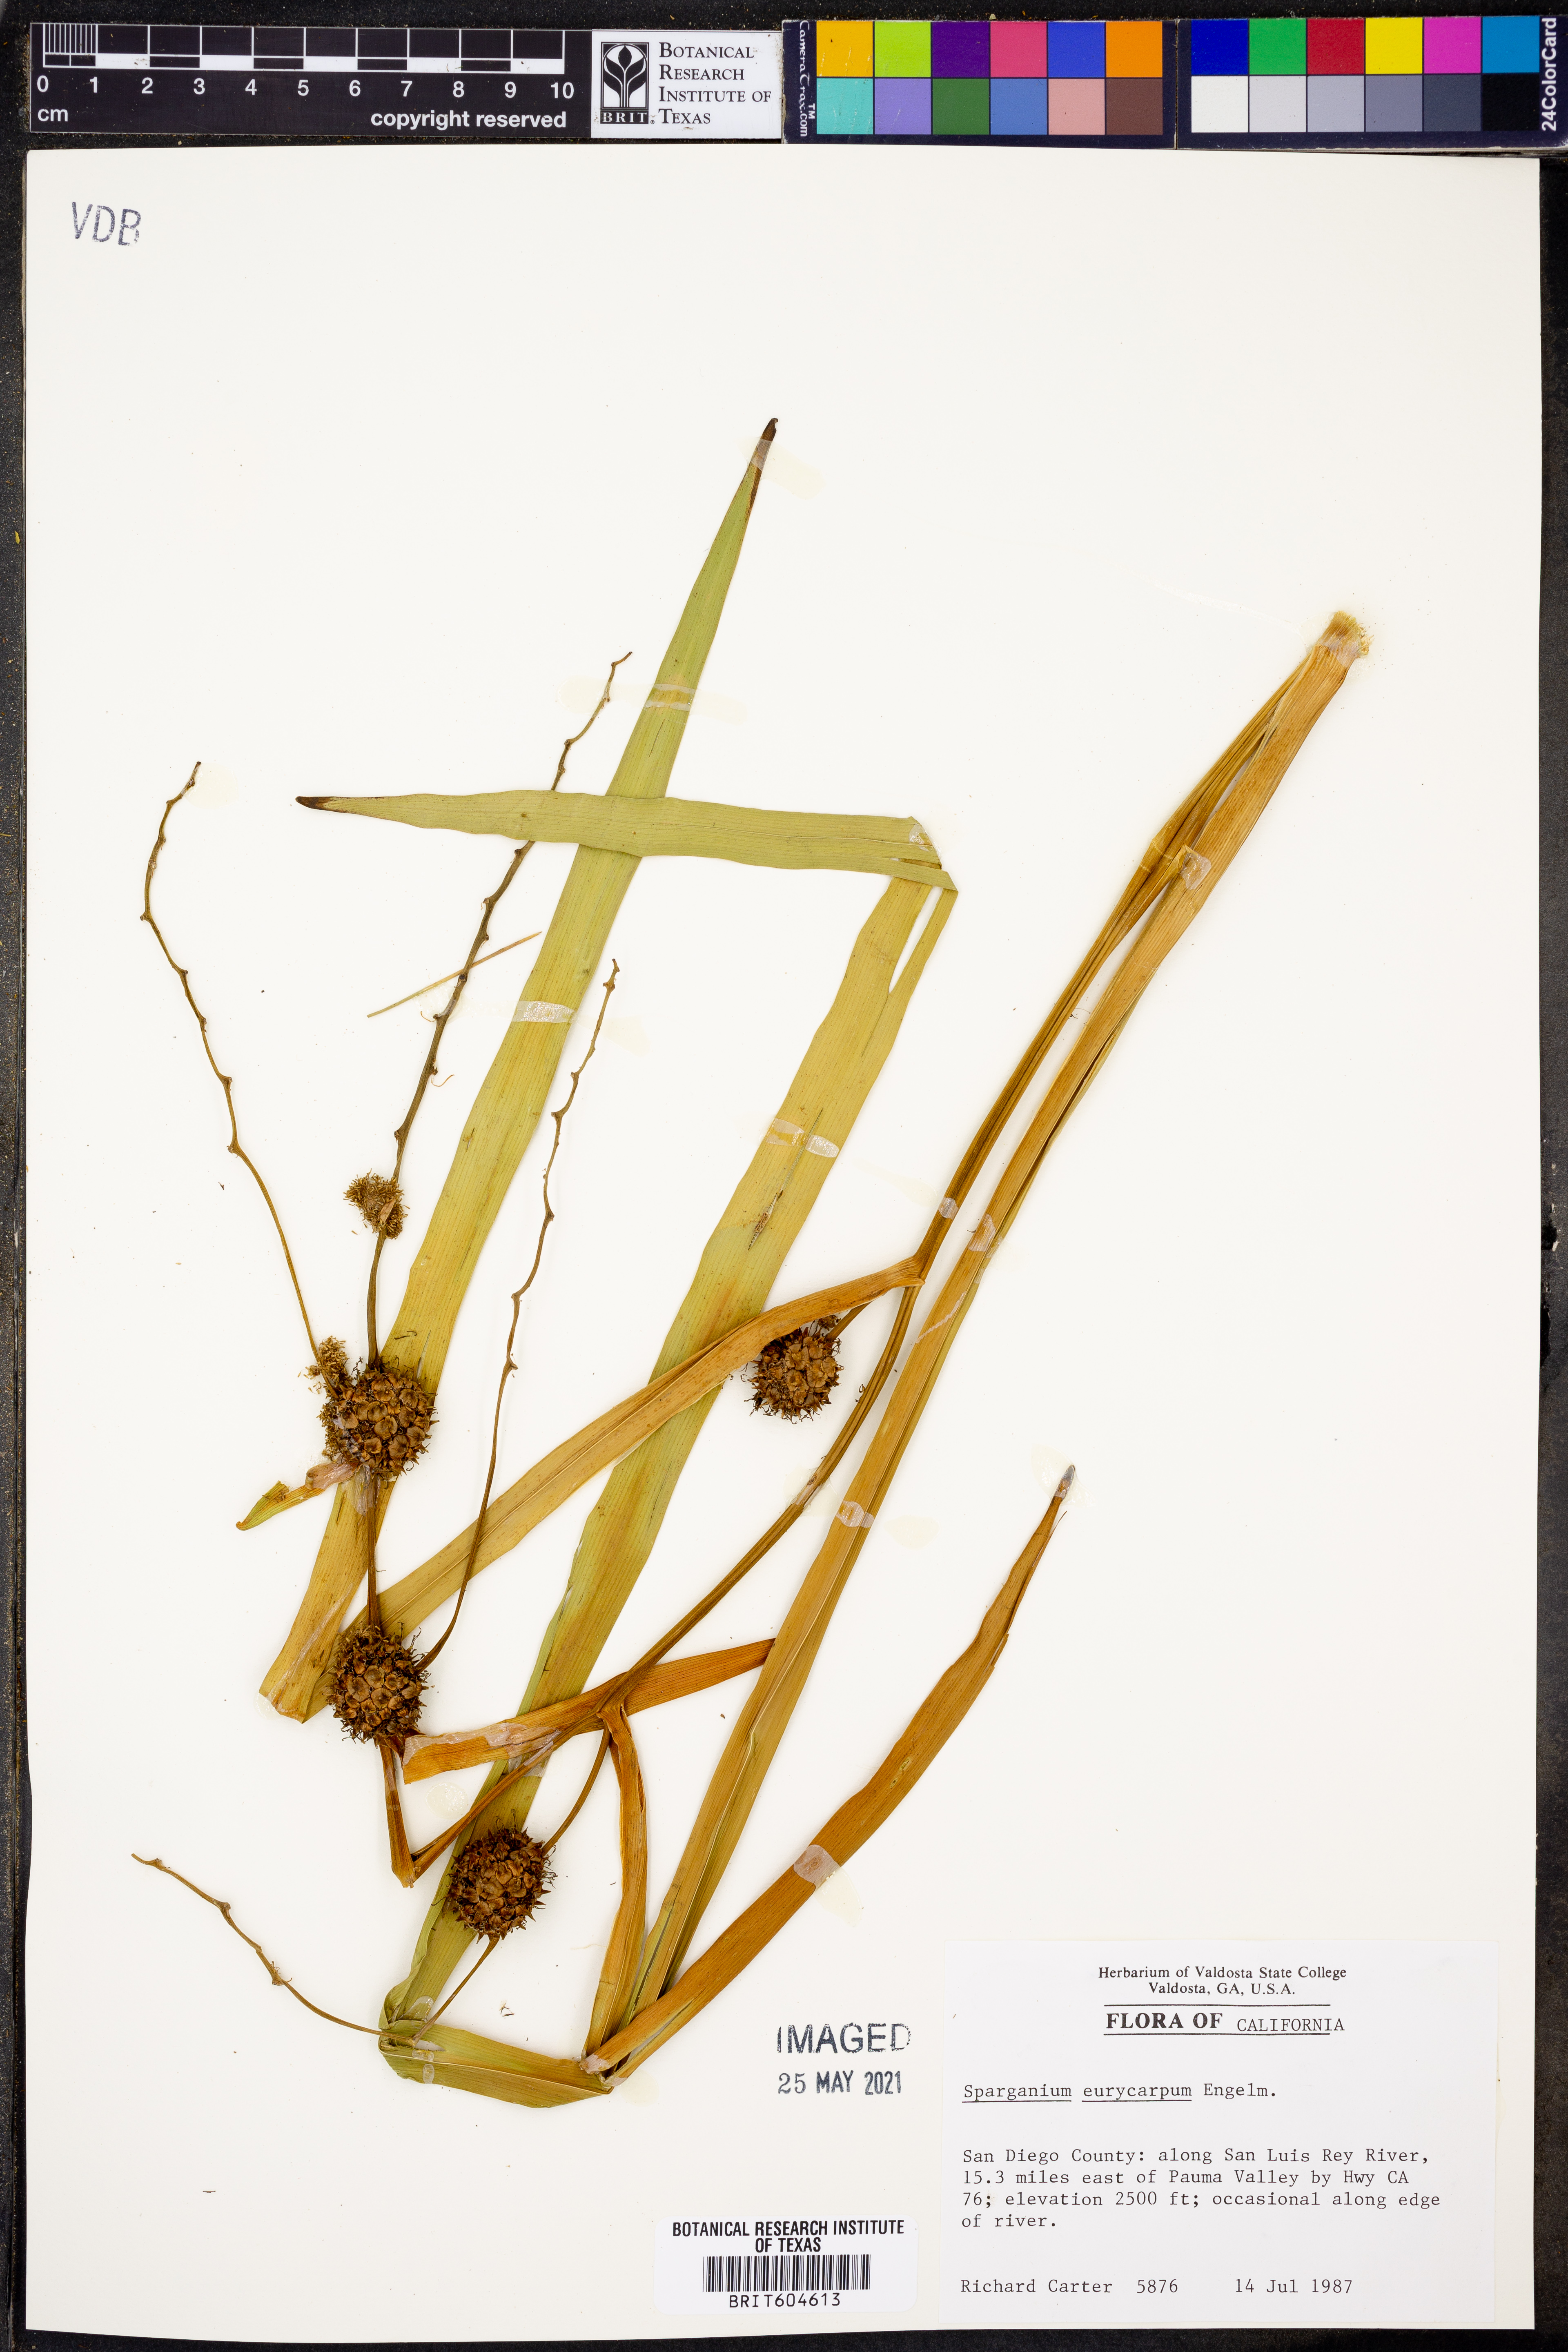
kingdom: Plantae
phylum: Tracheophyta
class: Liliopsida
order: Poales
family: Typhaceae
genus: Sparganium
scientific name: Sparganium eurycarpum
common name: Broad-fruited burreed
